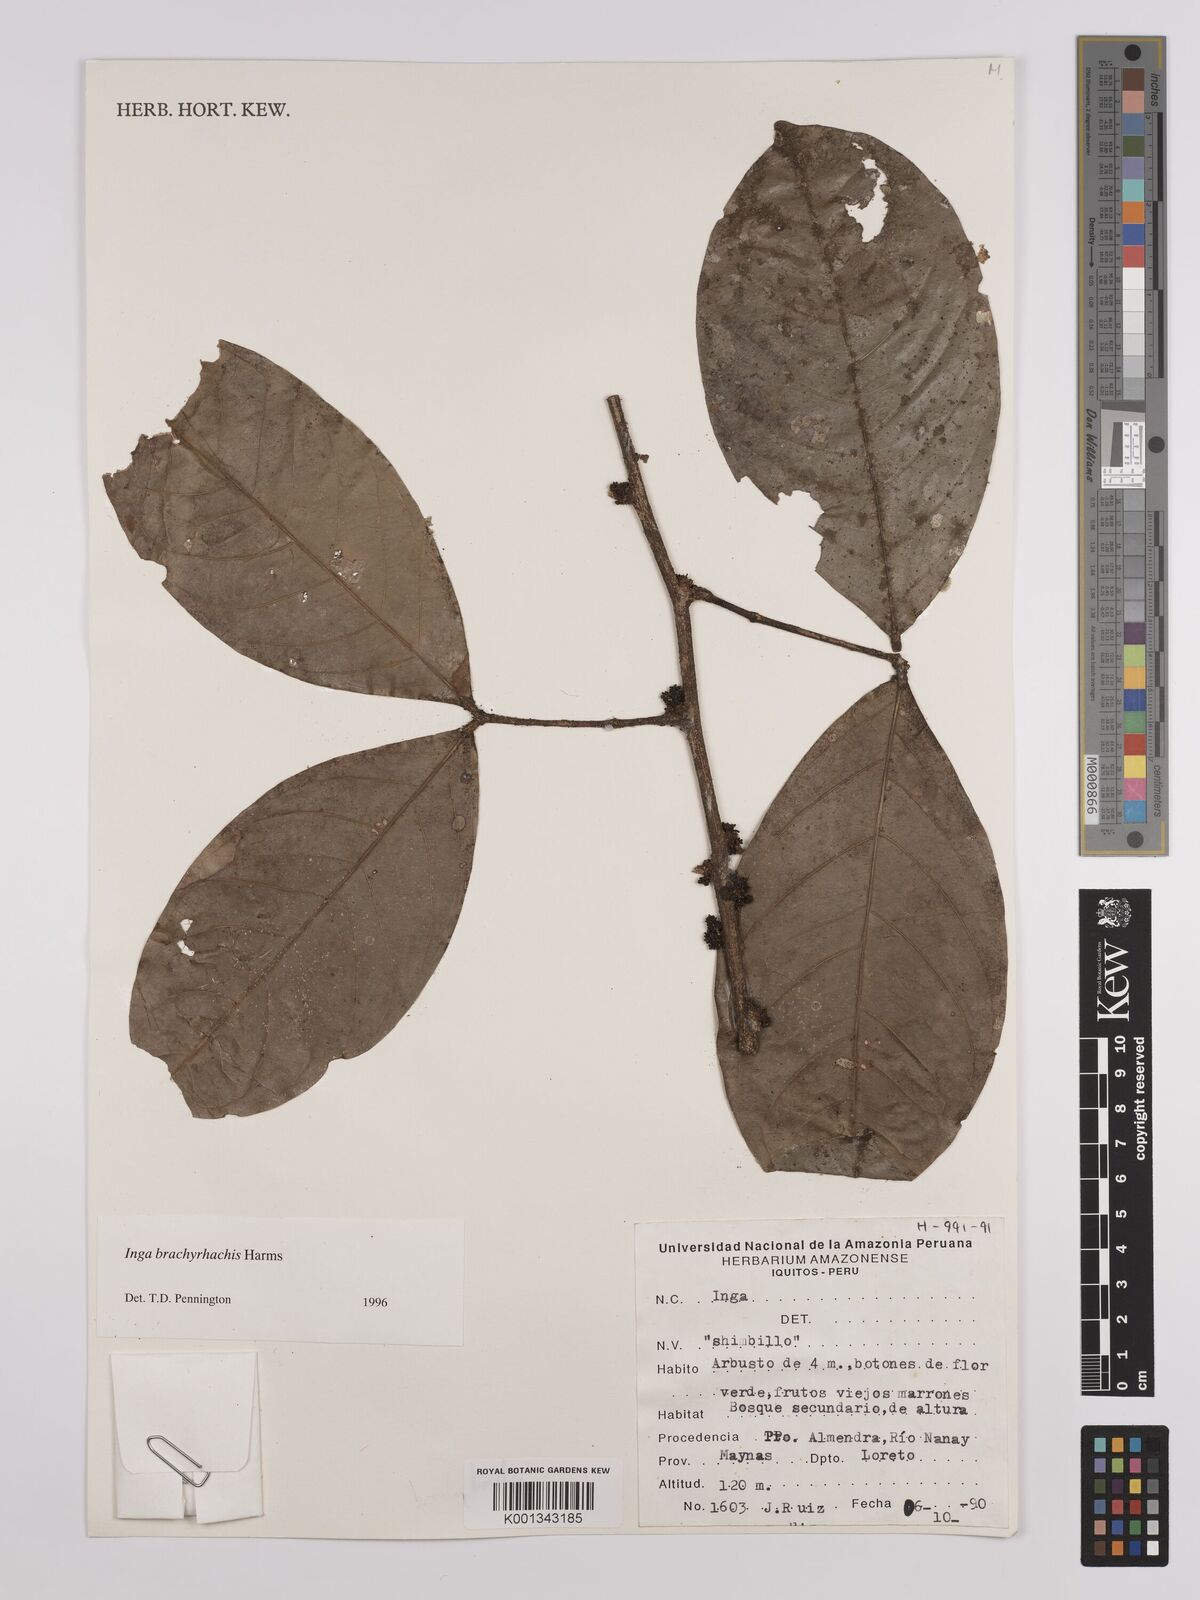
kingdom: Plantae
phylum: Tracheophyta
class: Magnoliopsida
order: Fabales
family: Fabaceae
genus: Inga
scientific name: Inga brachyrhachis
